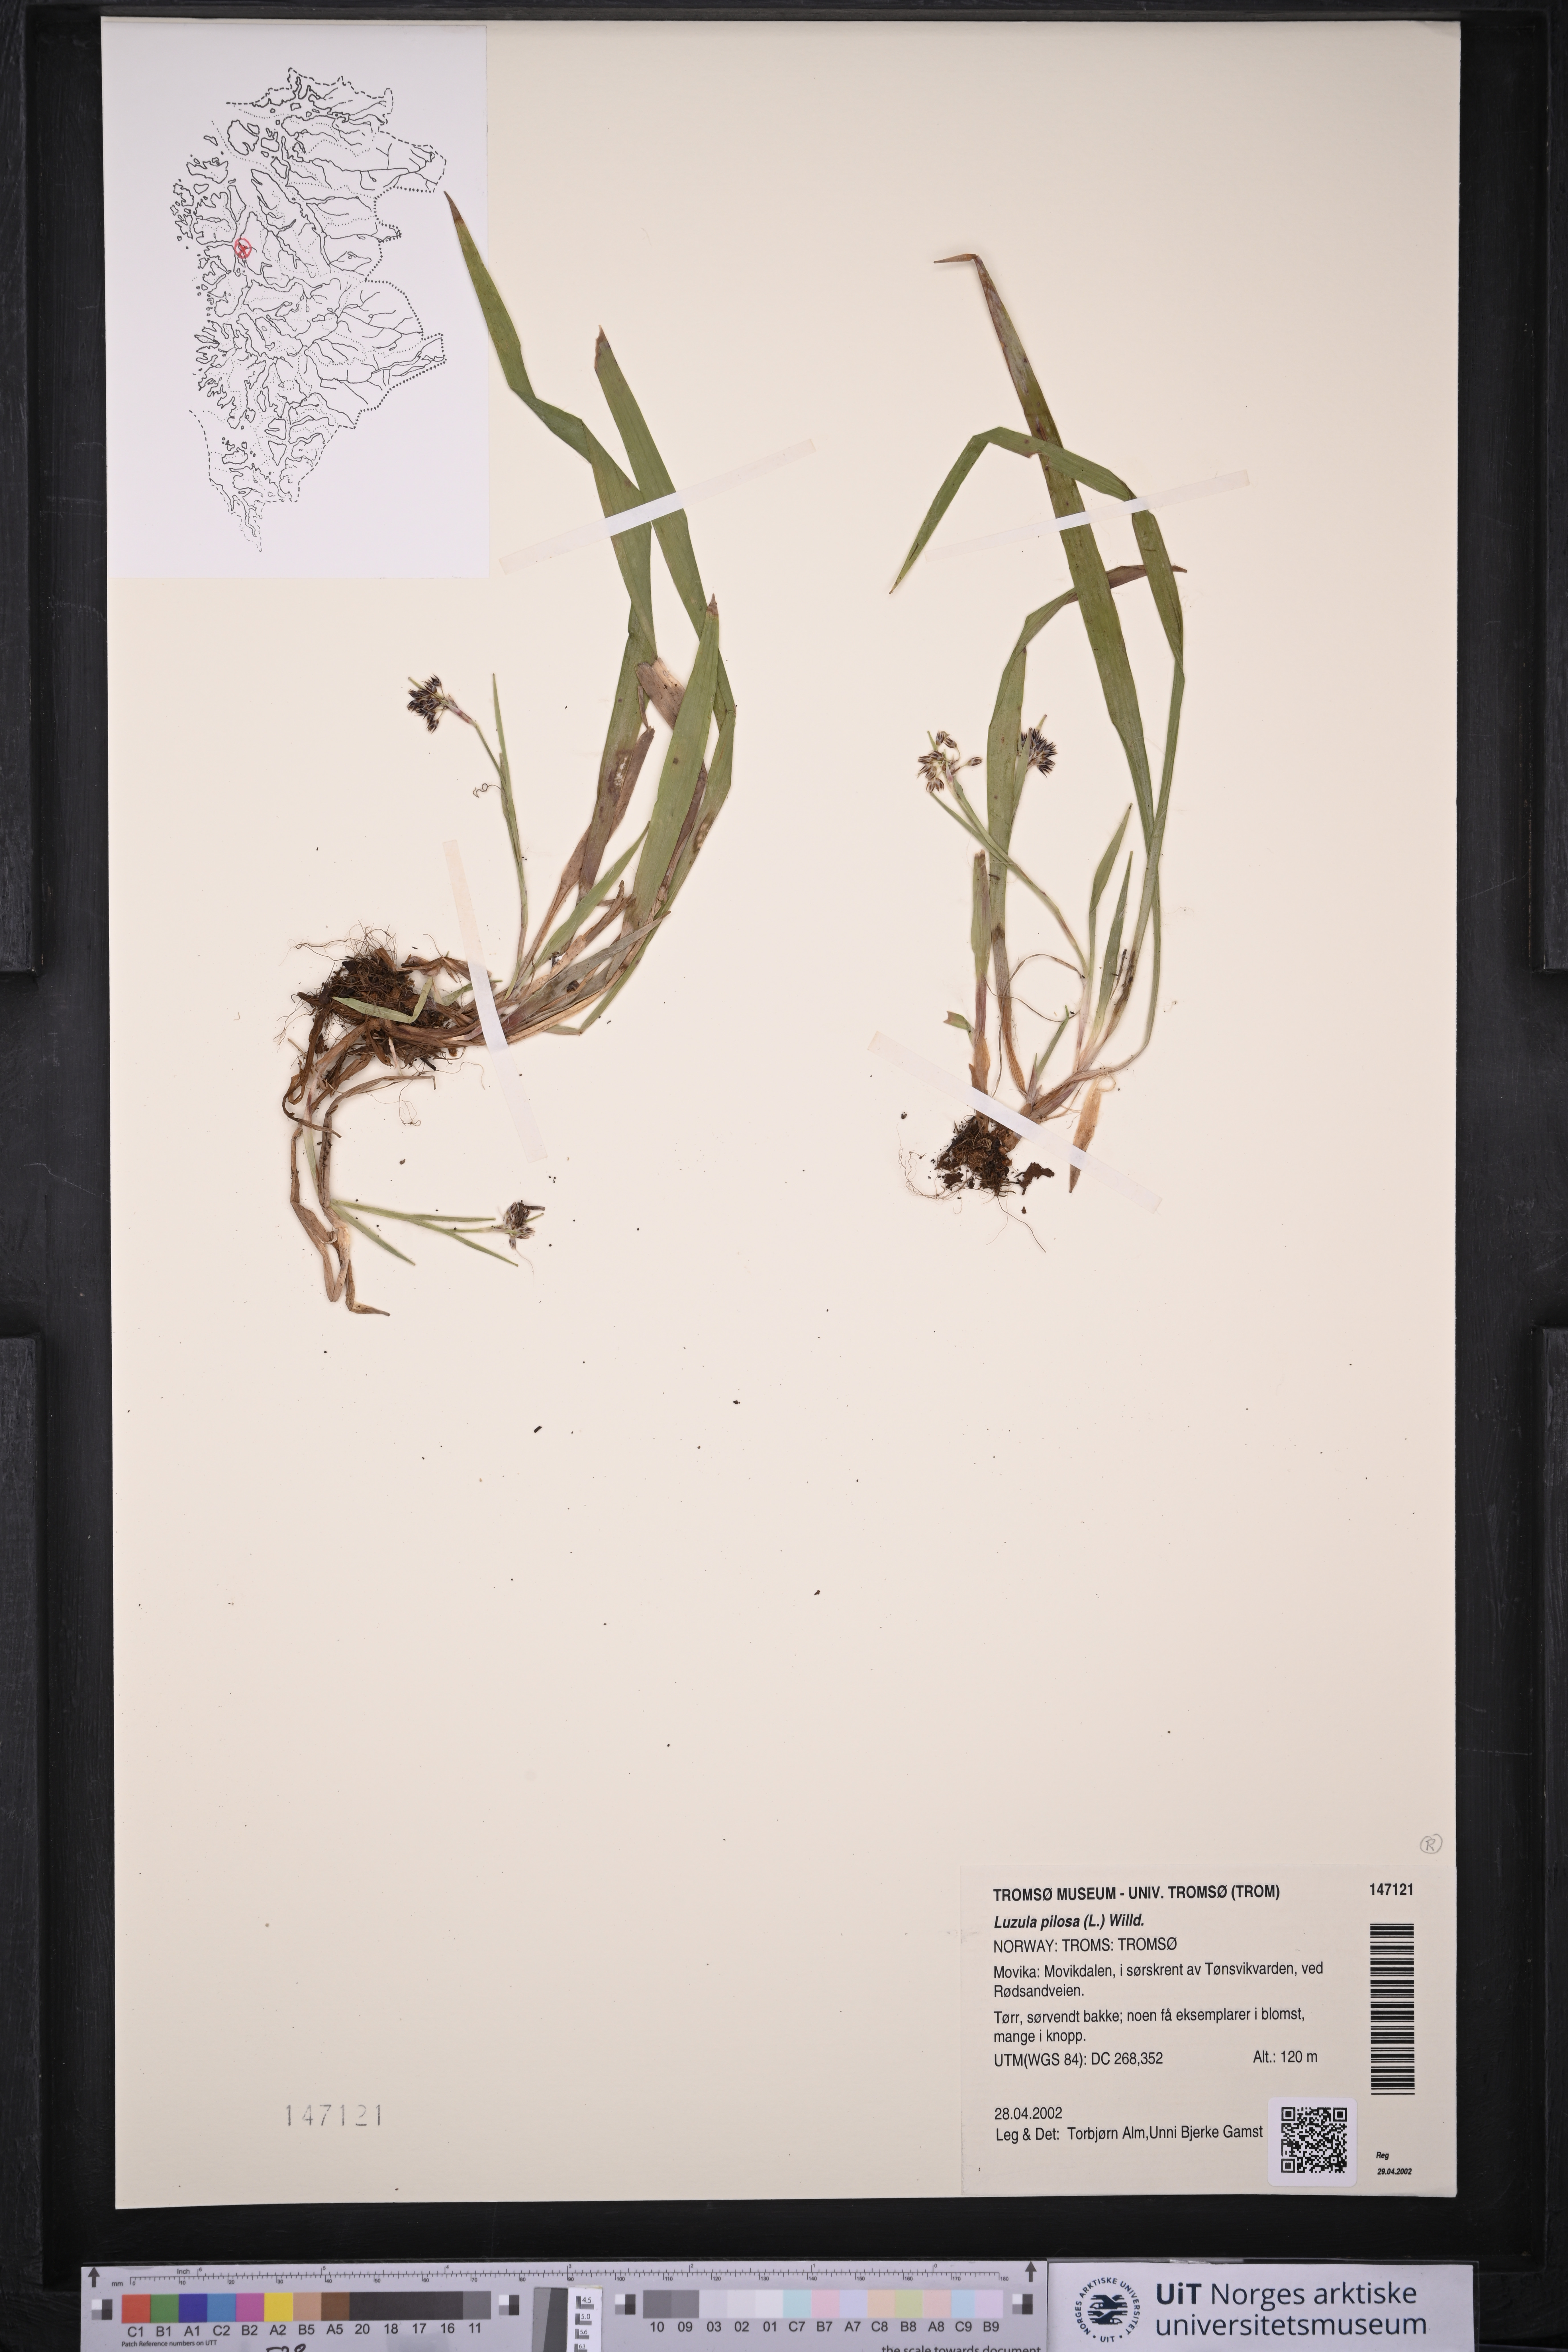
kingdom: Plantae
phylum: Tracheophyta
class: Liliopsida
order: Poales
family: Juncaceae
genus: Luzula
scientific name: Luzula pilosa
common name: Hairy wood-rush
